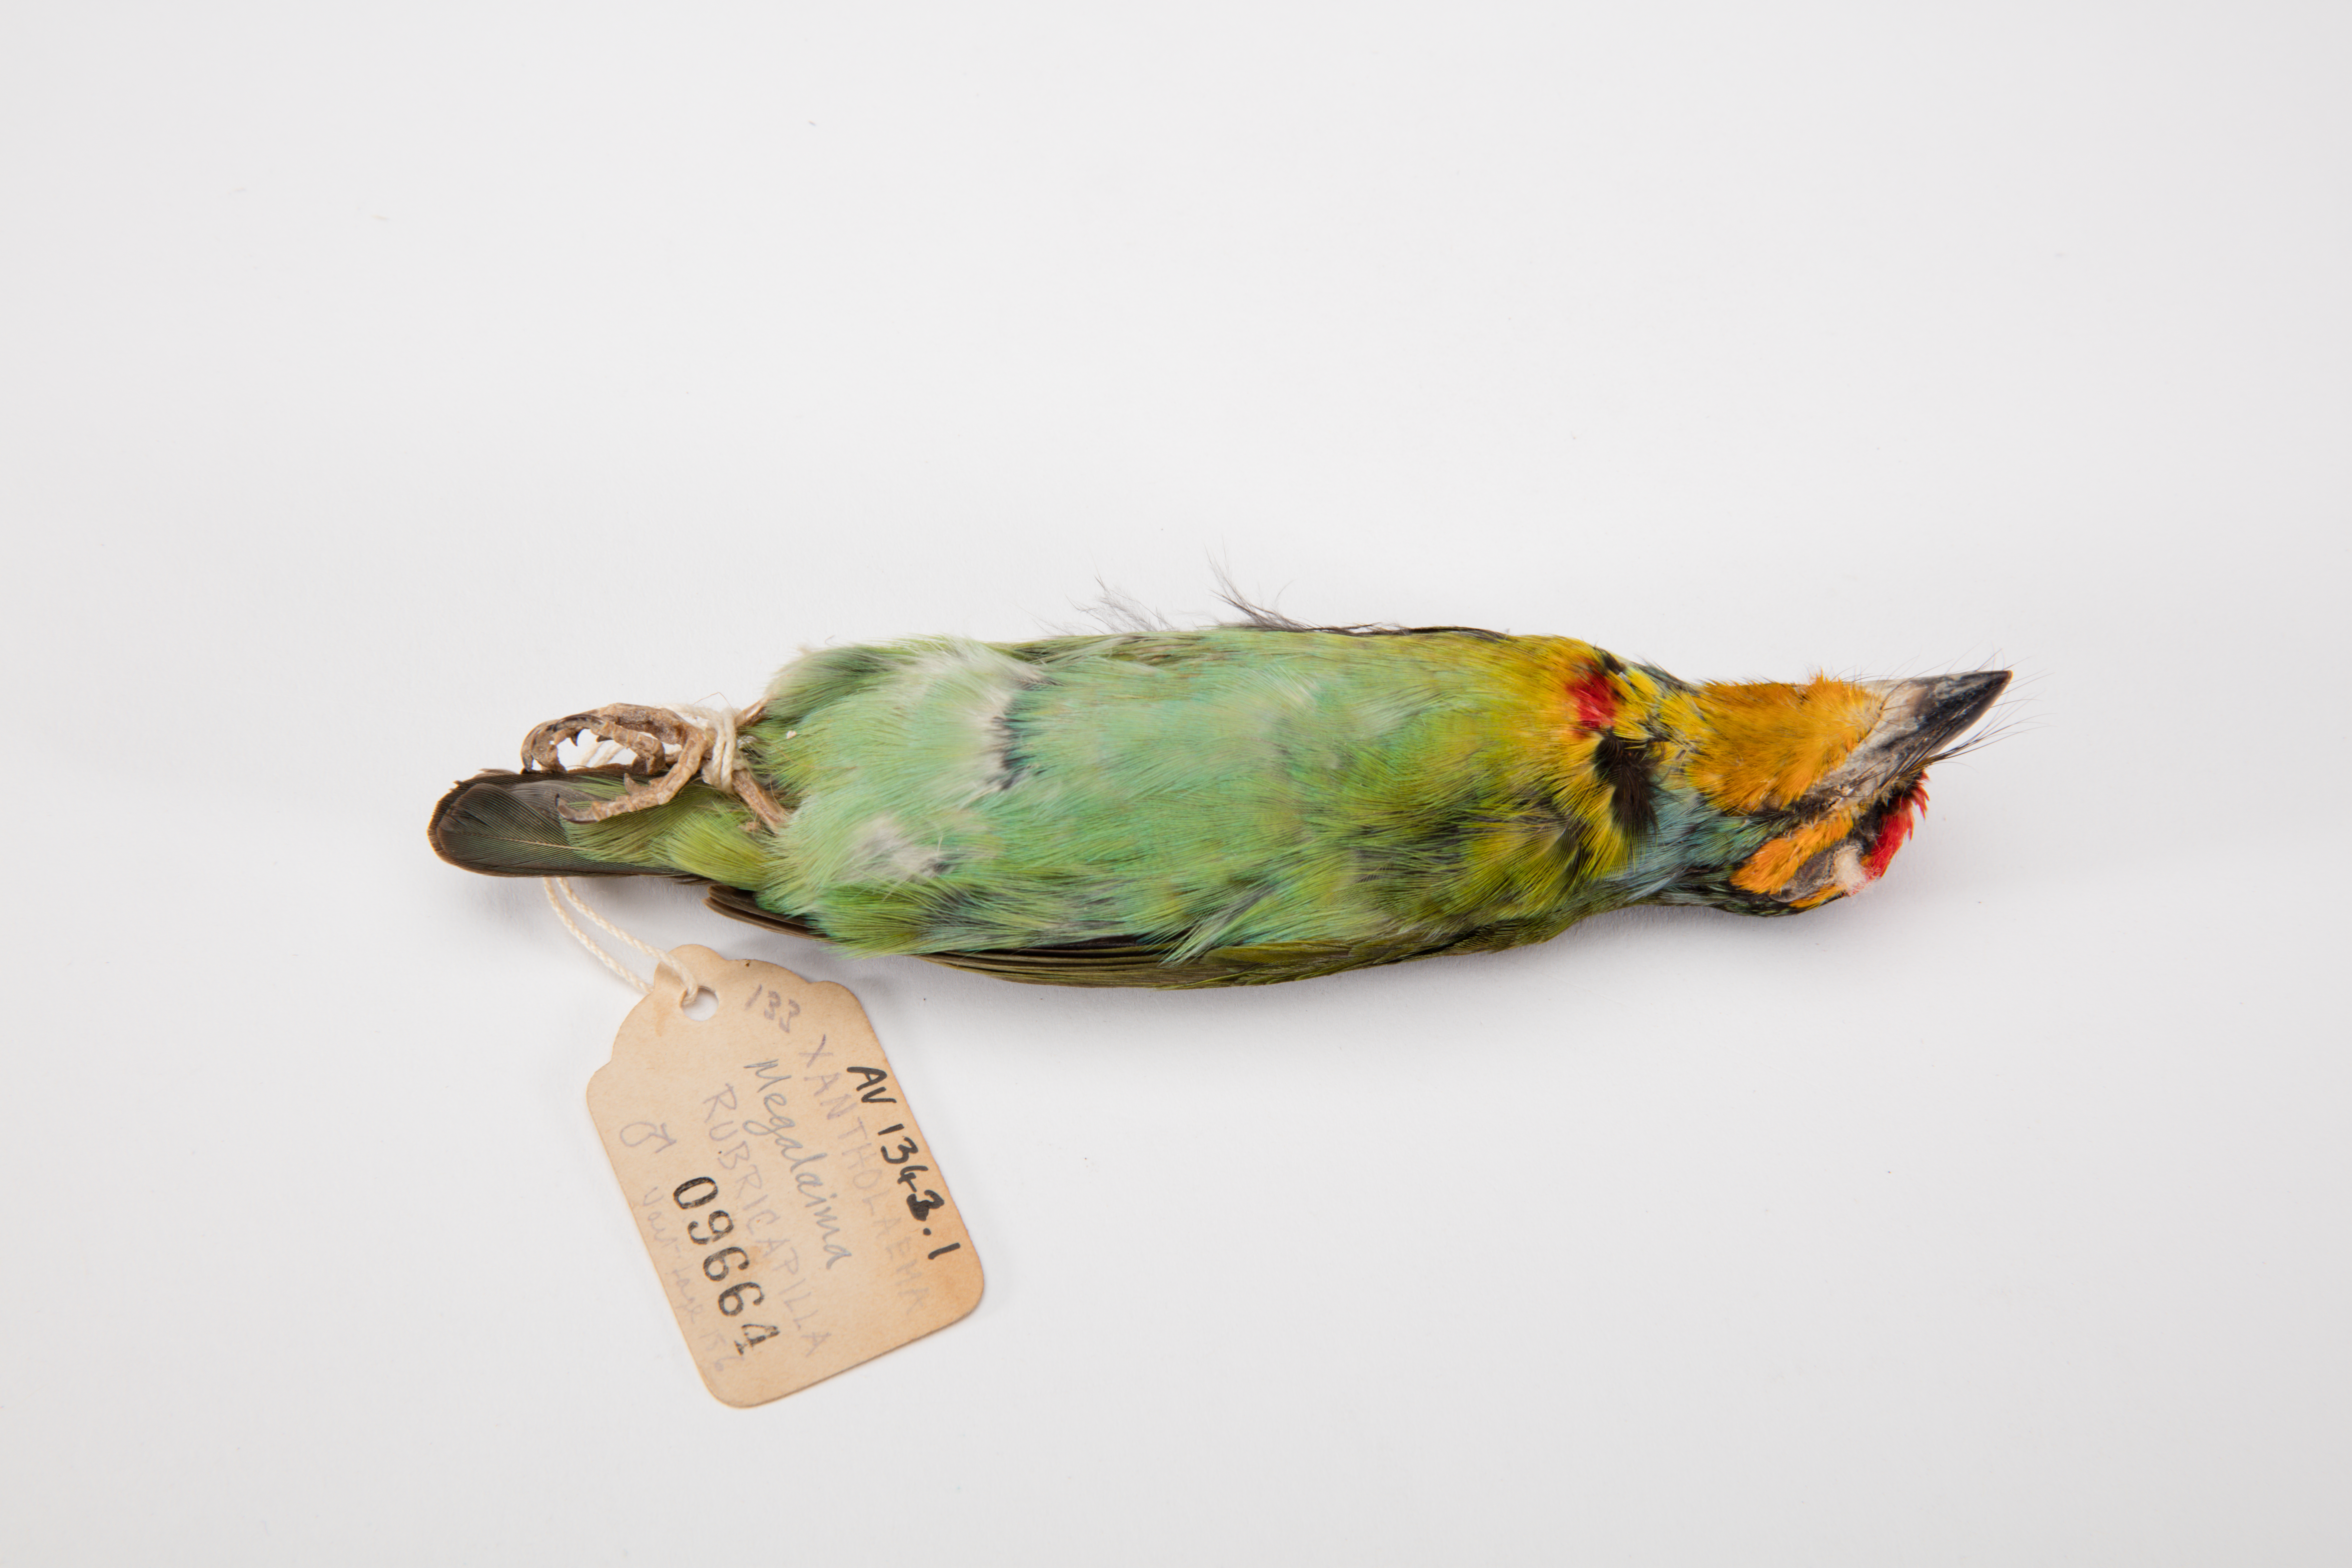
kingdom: Animalia
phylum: Chordata
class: Aves
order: Piciformes
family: Megalaimidae
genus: Psilopogon
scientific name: Psilopogon flavifrons
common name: Yellow-fronted barbet
